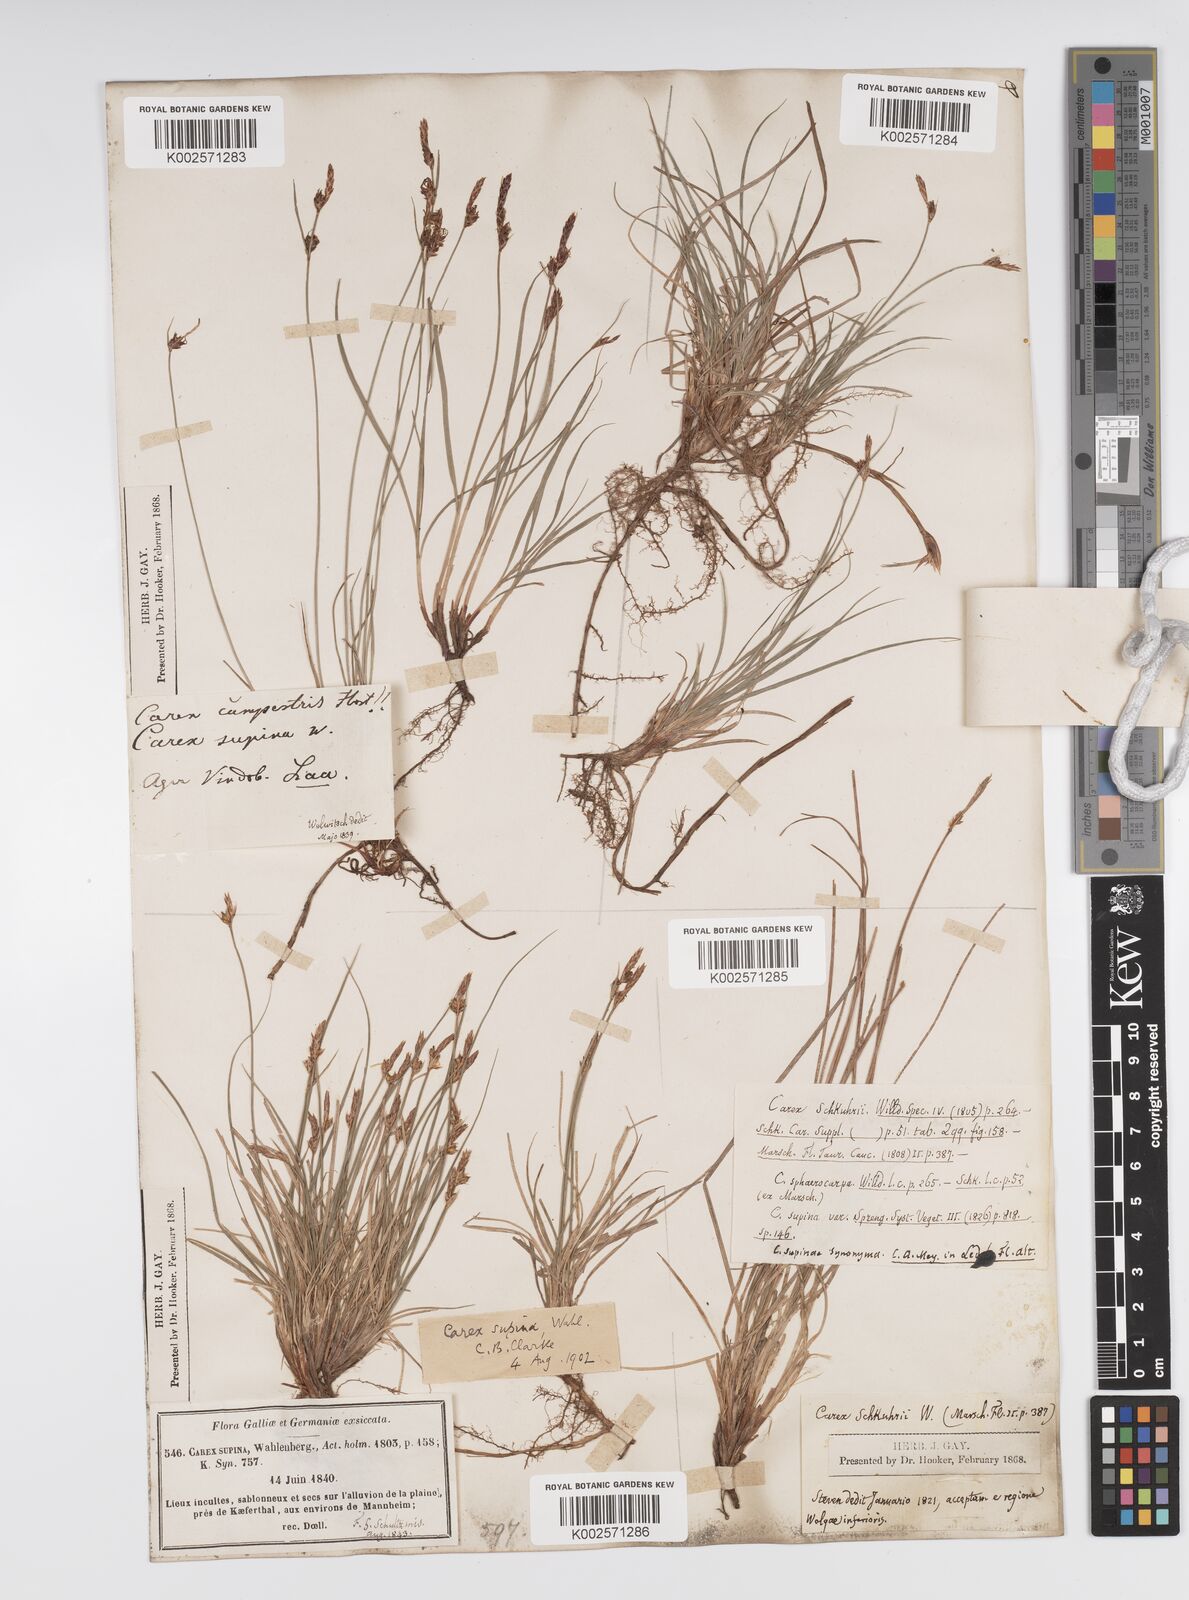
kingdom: Plantae
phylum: Tracheophyta
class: Liliopsida
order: Poales
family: Cyperaceae
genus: Carex
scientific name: Carex supina
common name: Lying-back sedge
